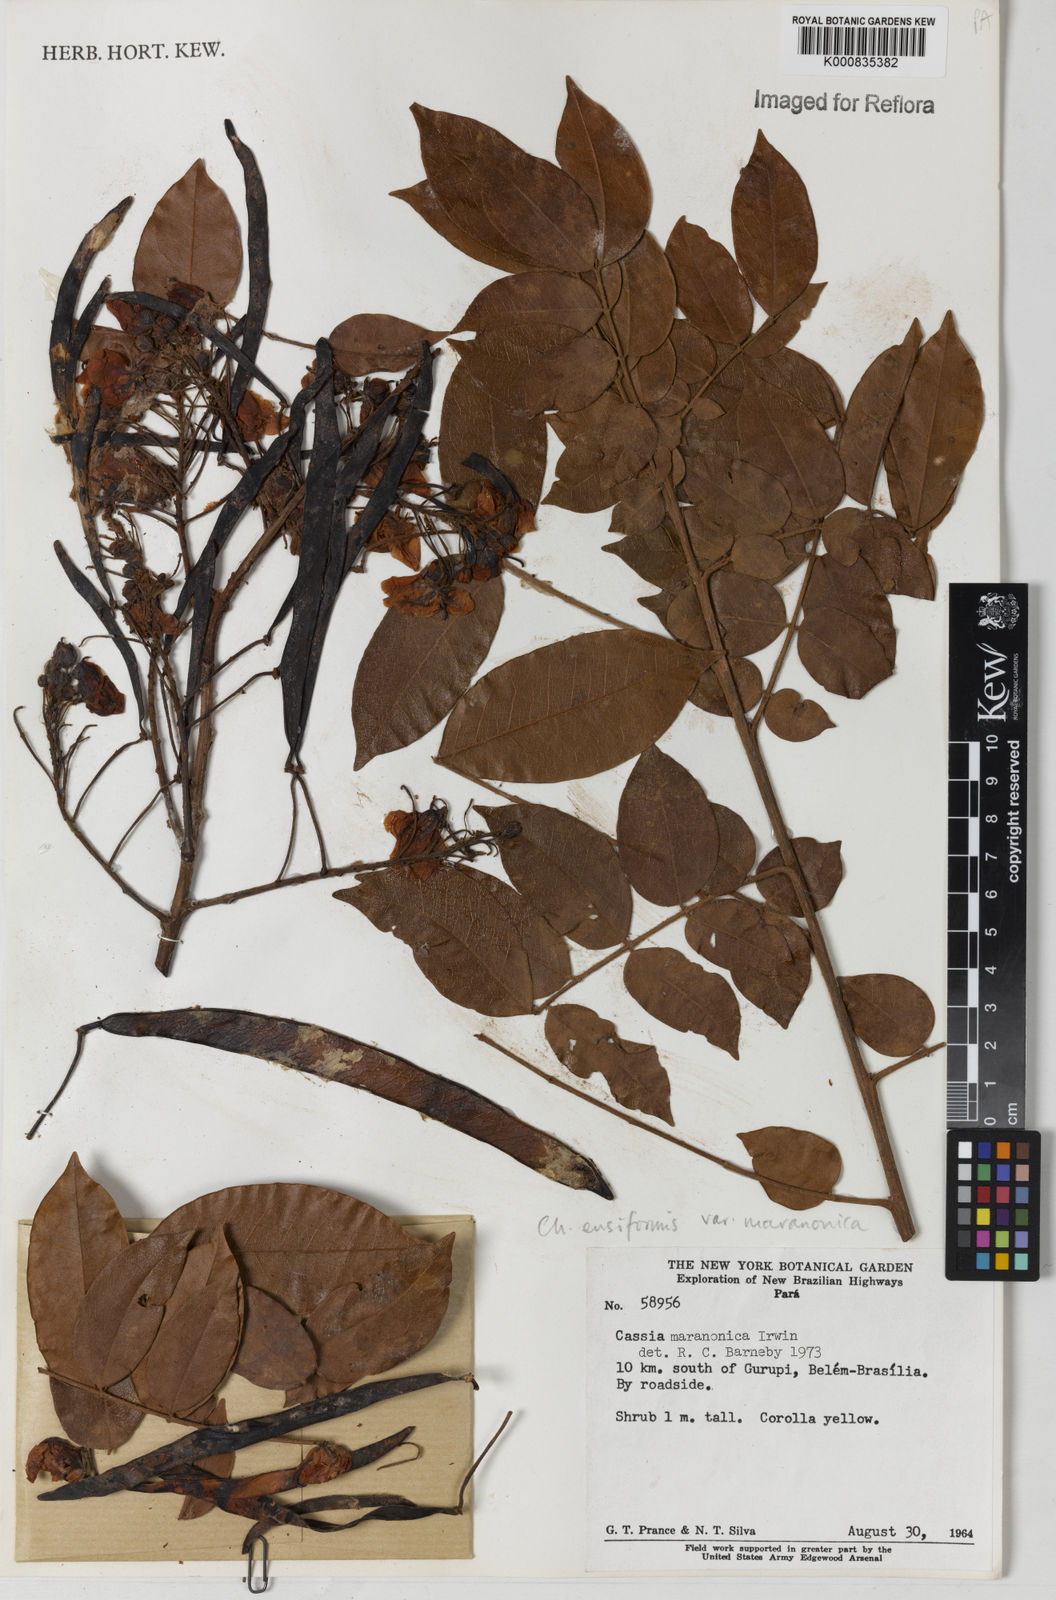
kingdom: Plantae
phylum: Tracheophyta
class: Magnoliopsida
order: Fabales
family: Fabaceae
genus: Chamaecrista
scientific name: Chamaecrista ensiformis
